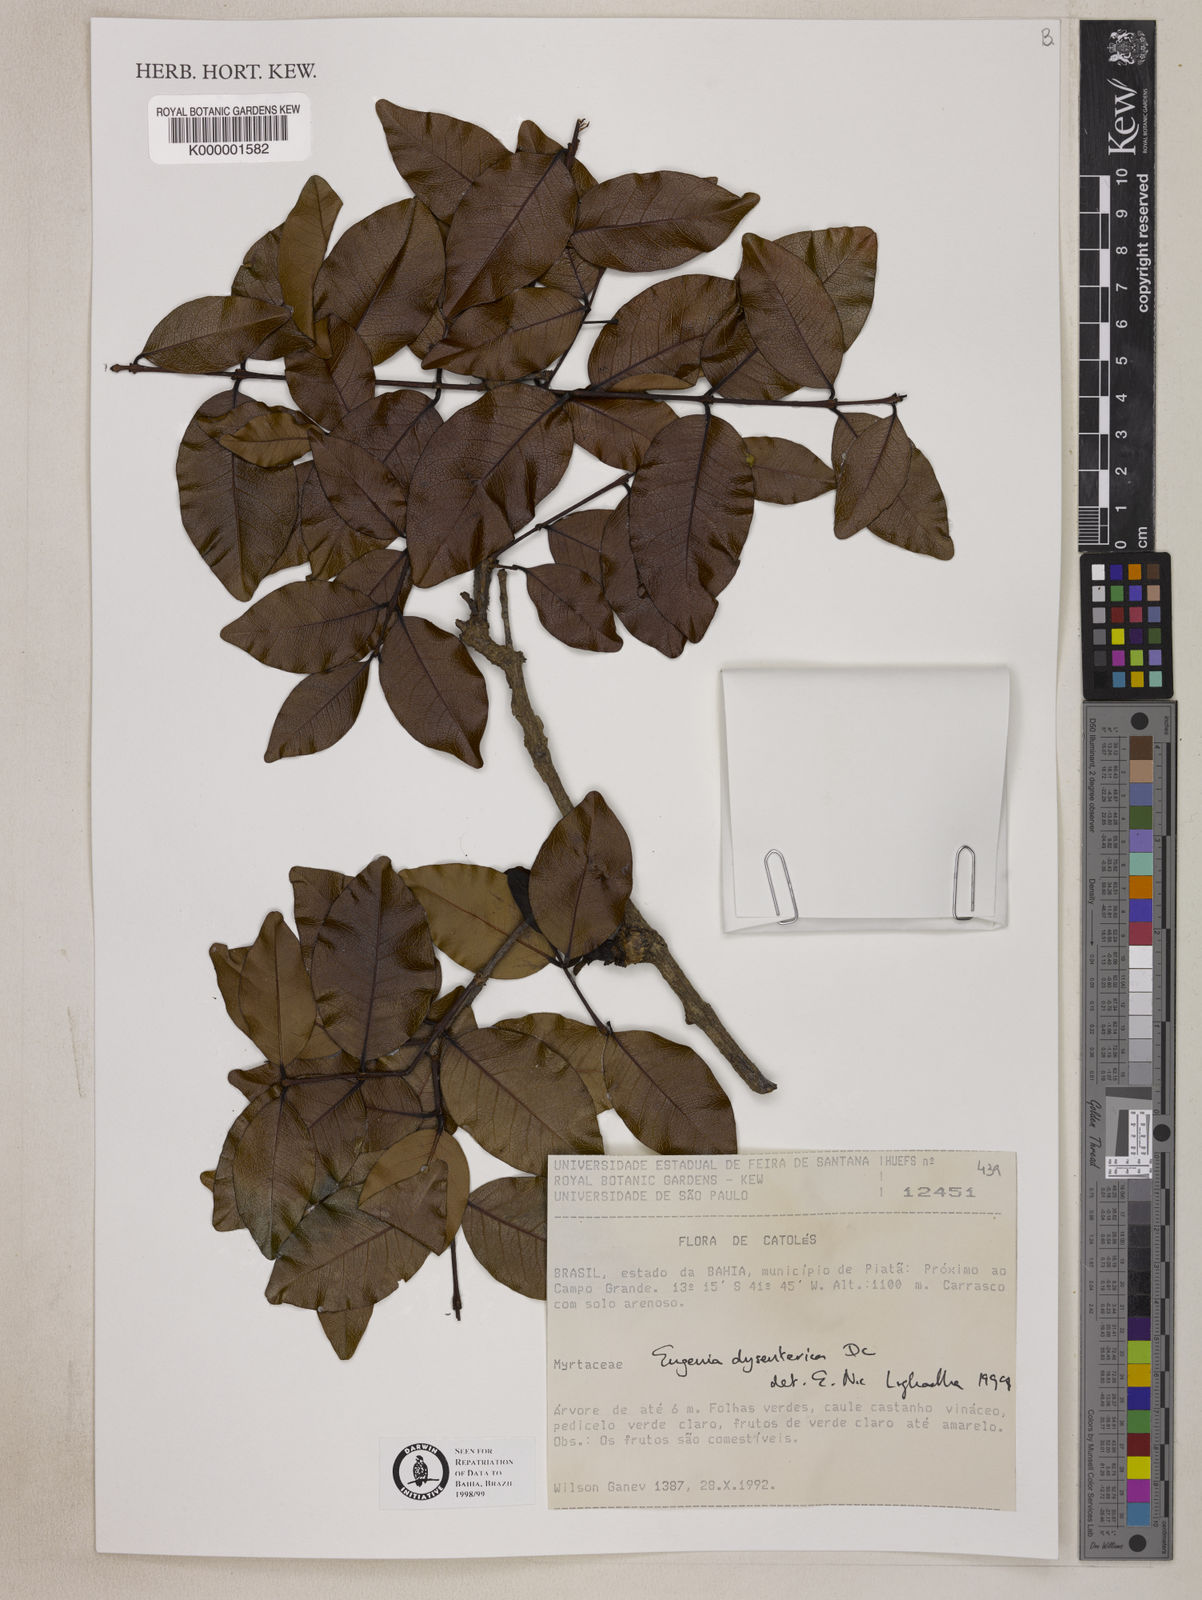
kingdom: Plantae
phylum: Tracheophyta
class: Magnoliopsida
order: Myrtales
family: Myrtaceae
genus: Eugenia
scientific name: Eugenia dysenterica
